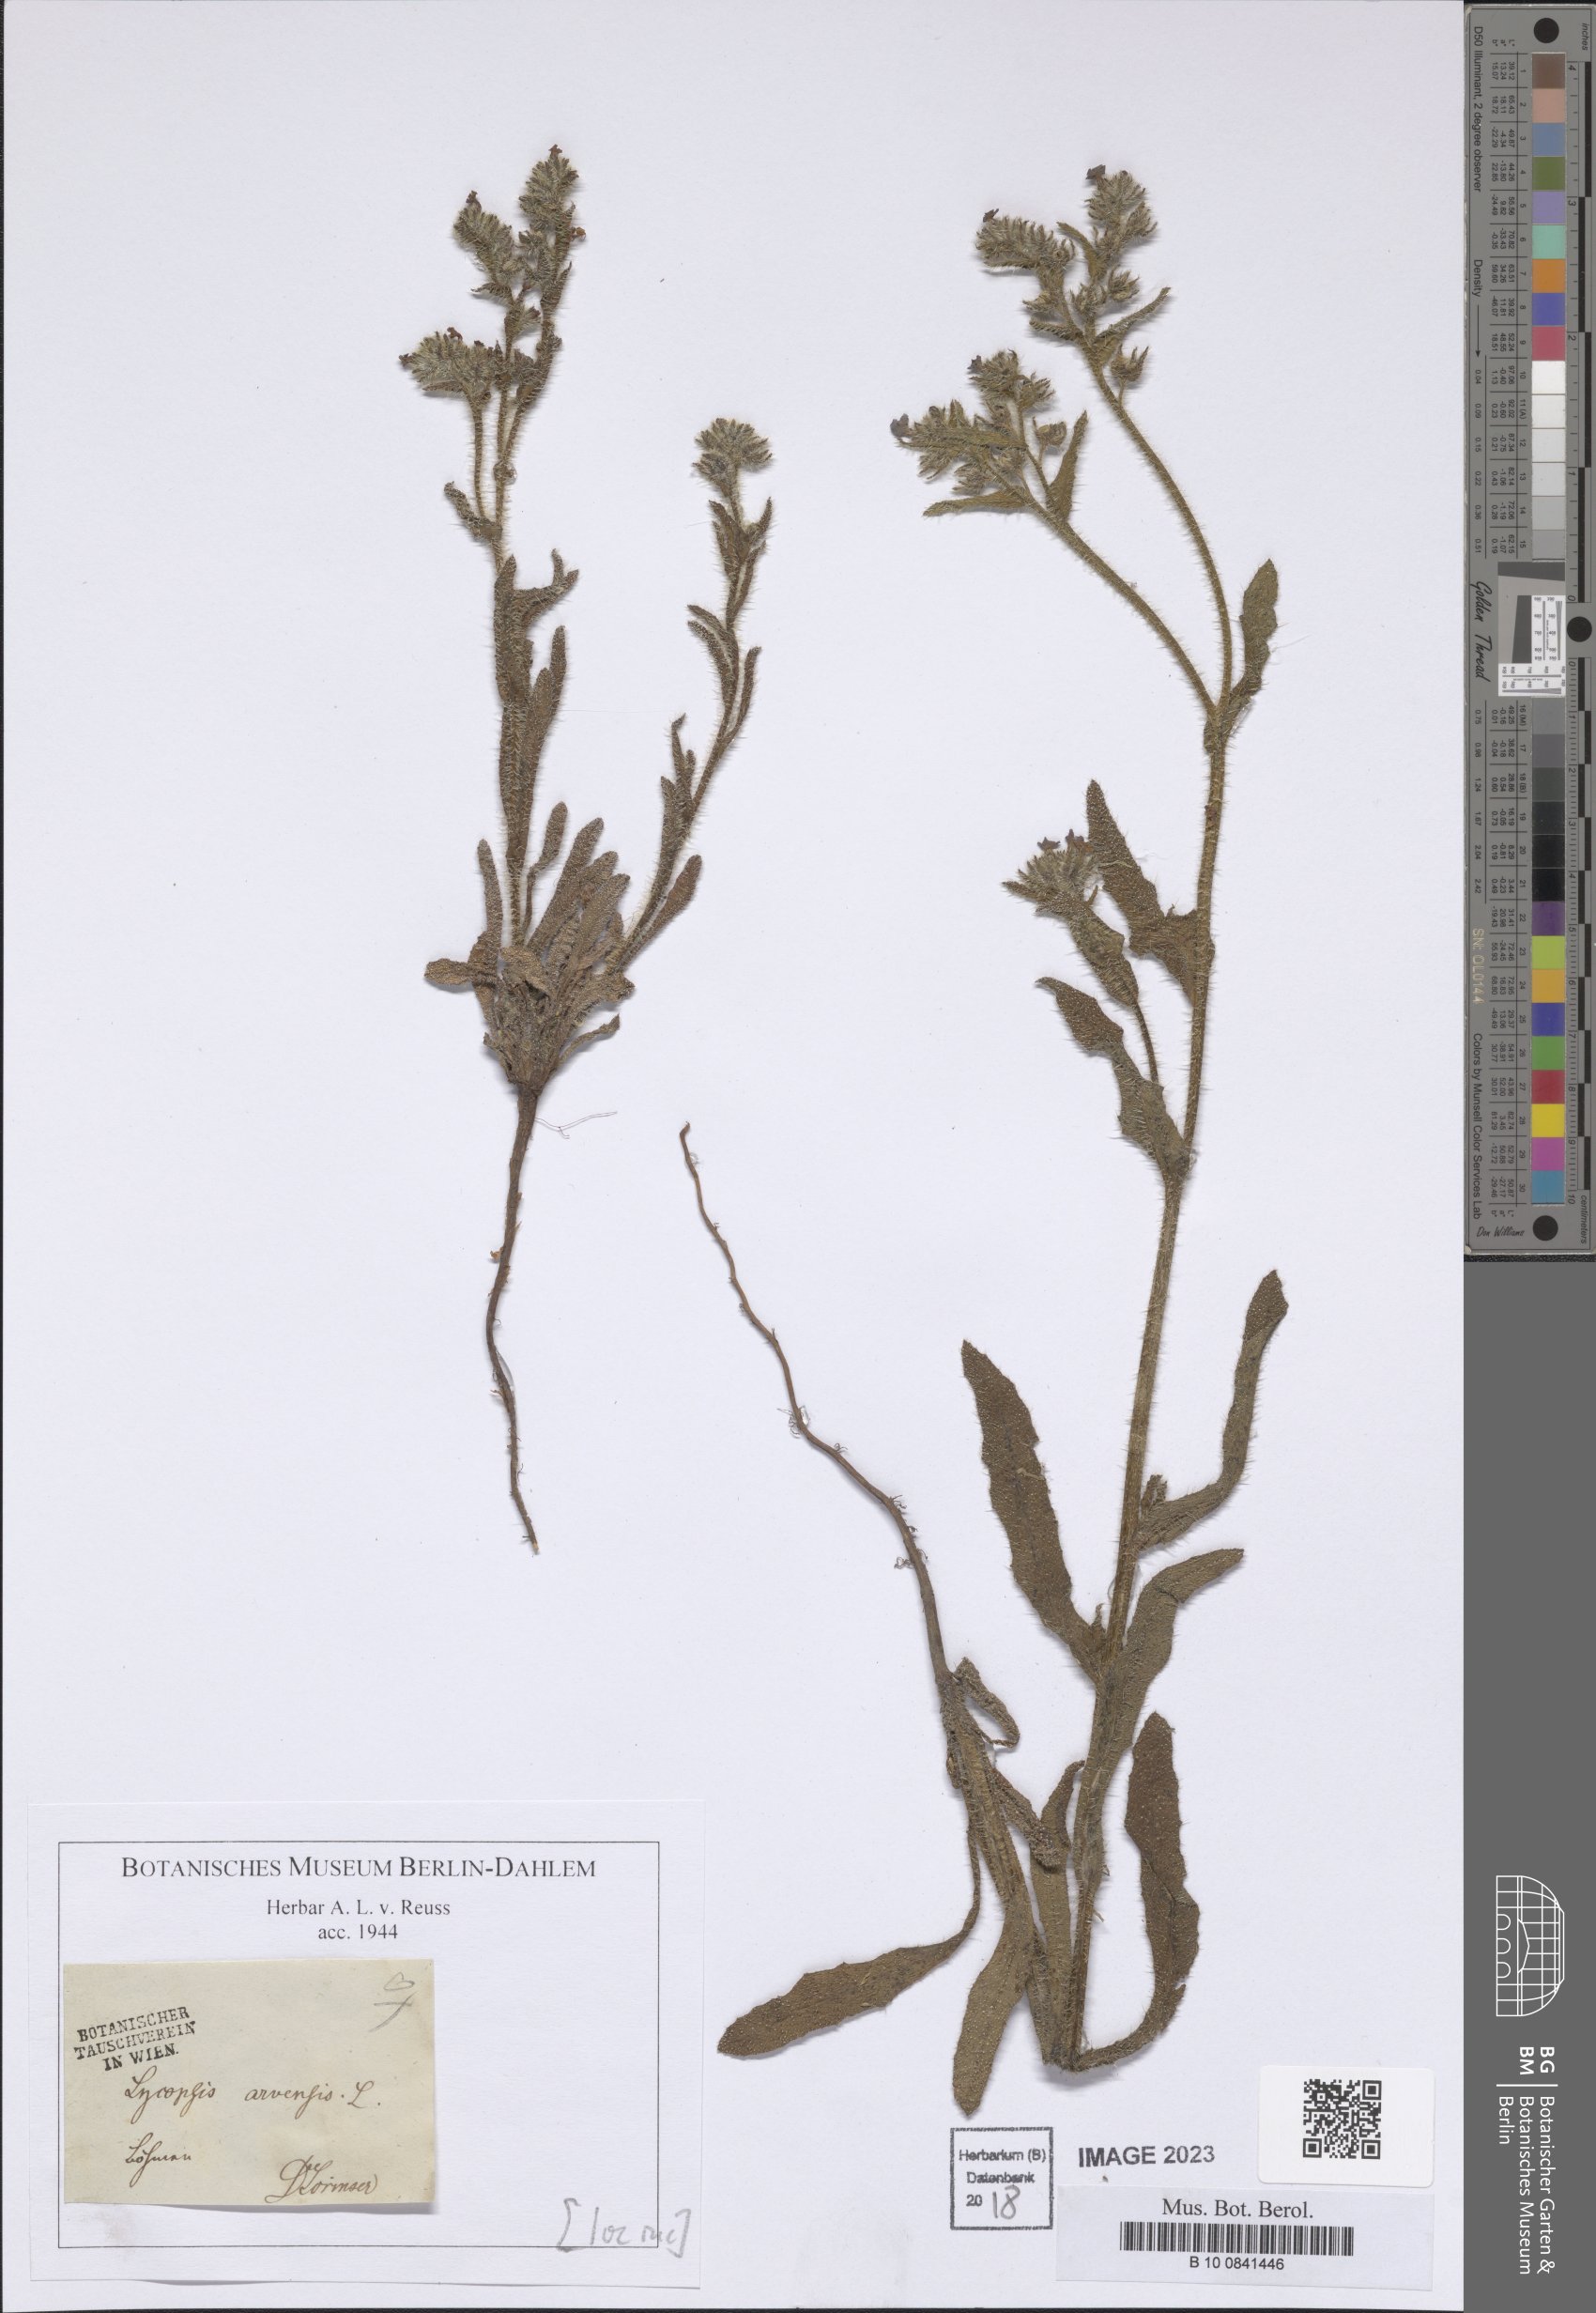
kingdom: Plantae
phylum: Tracheophyta
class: Magnoliopsida
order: Boraginales
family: Boraginaceae
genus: Lycopsis
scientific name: Lycopsis arvensis
